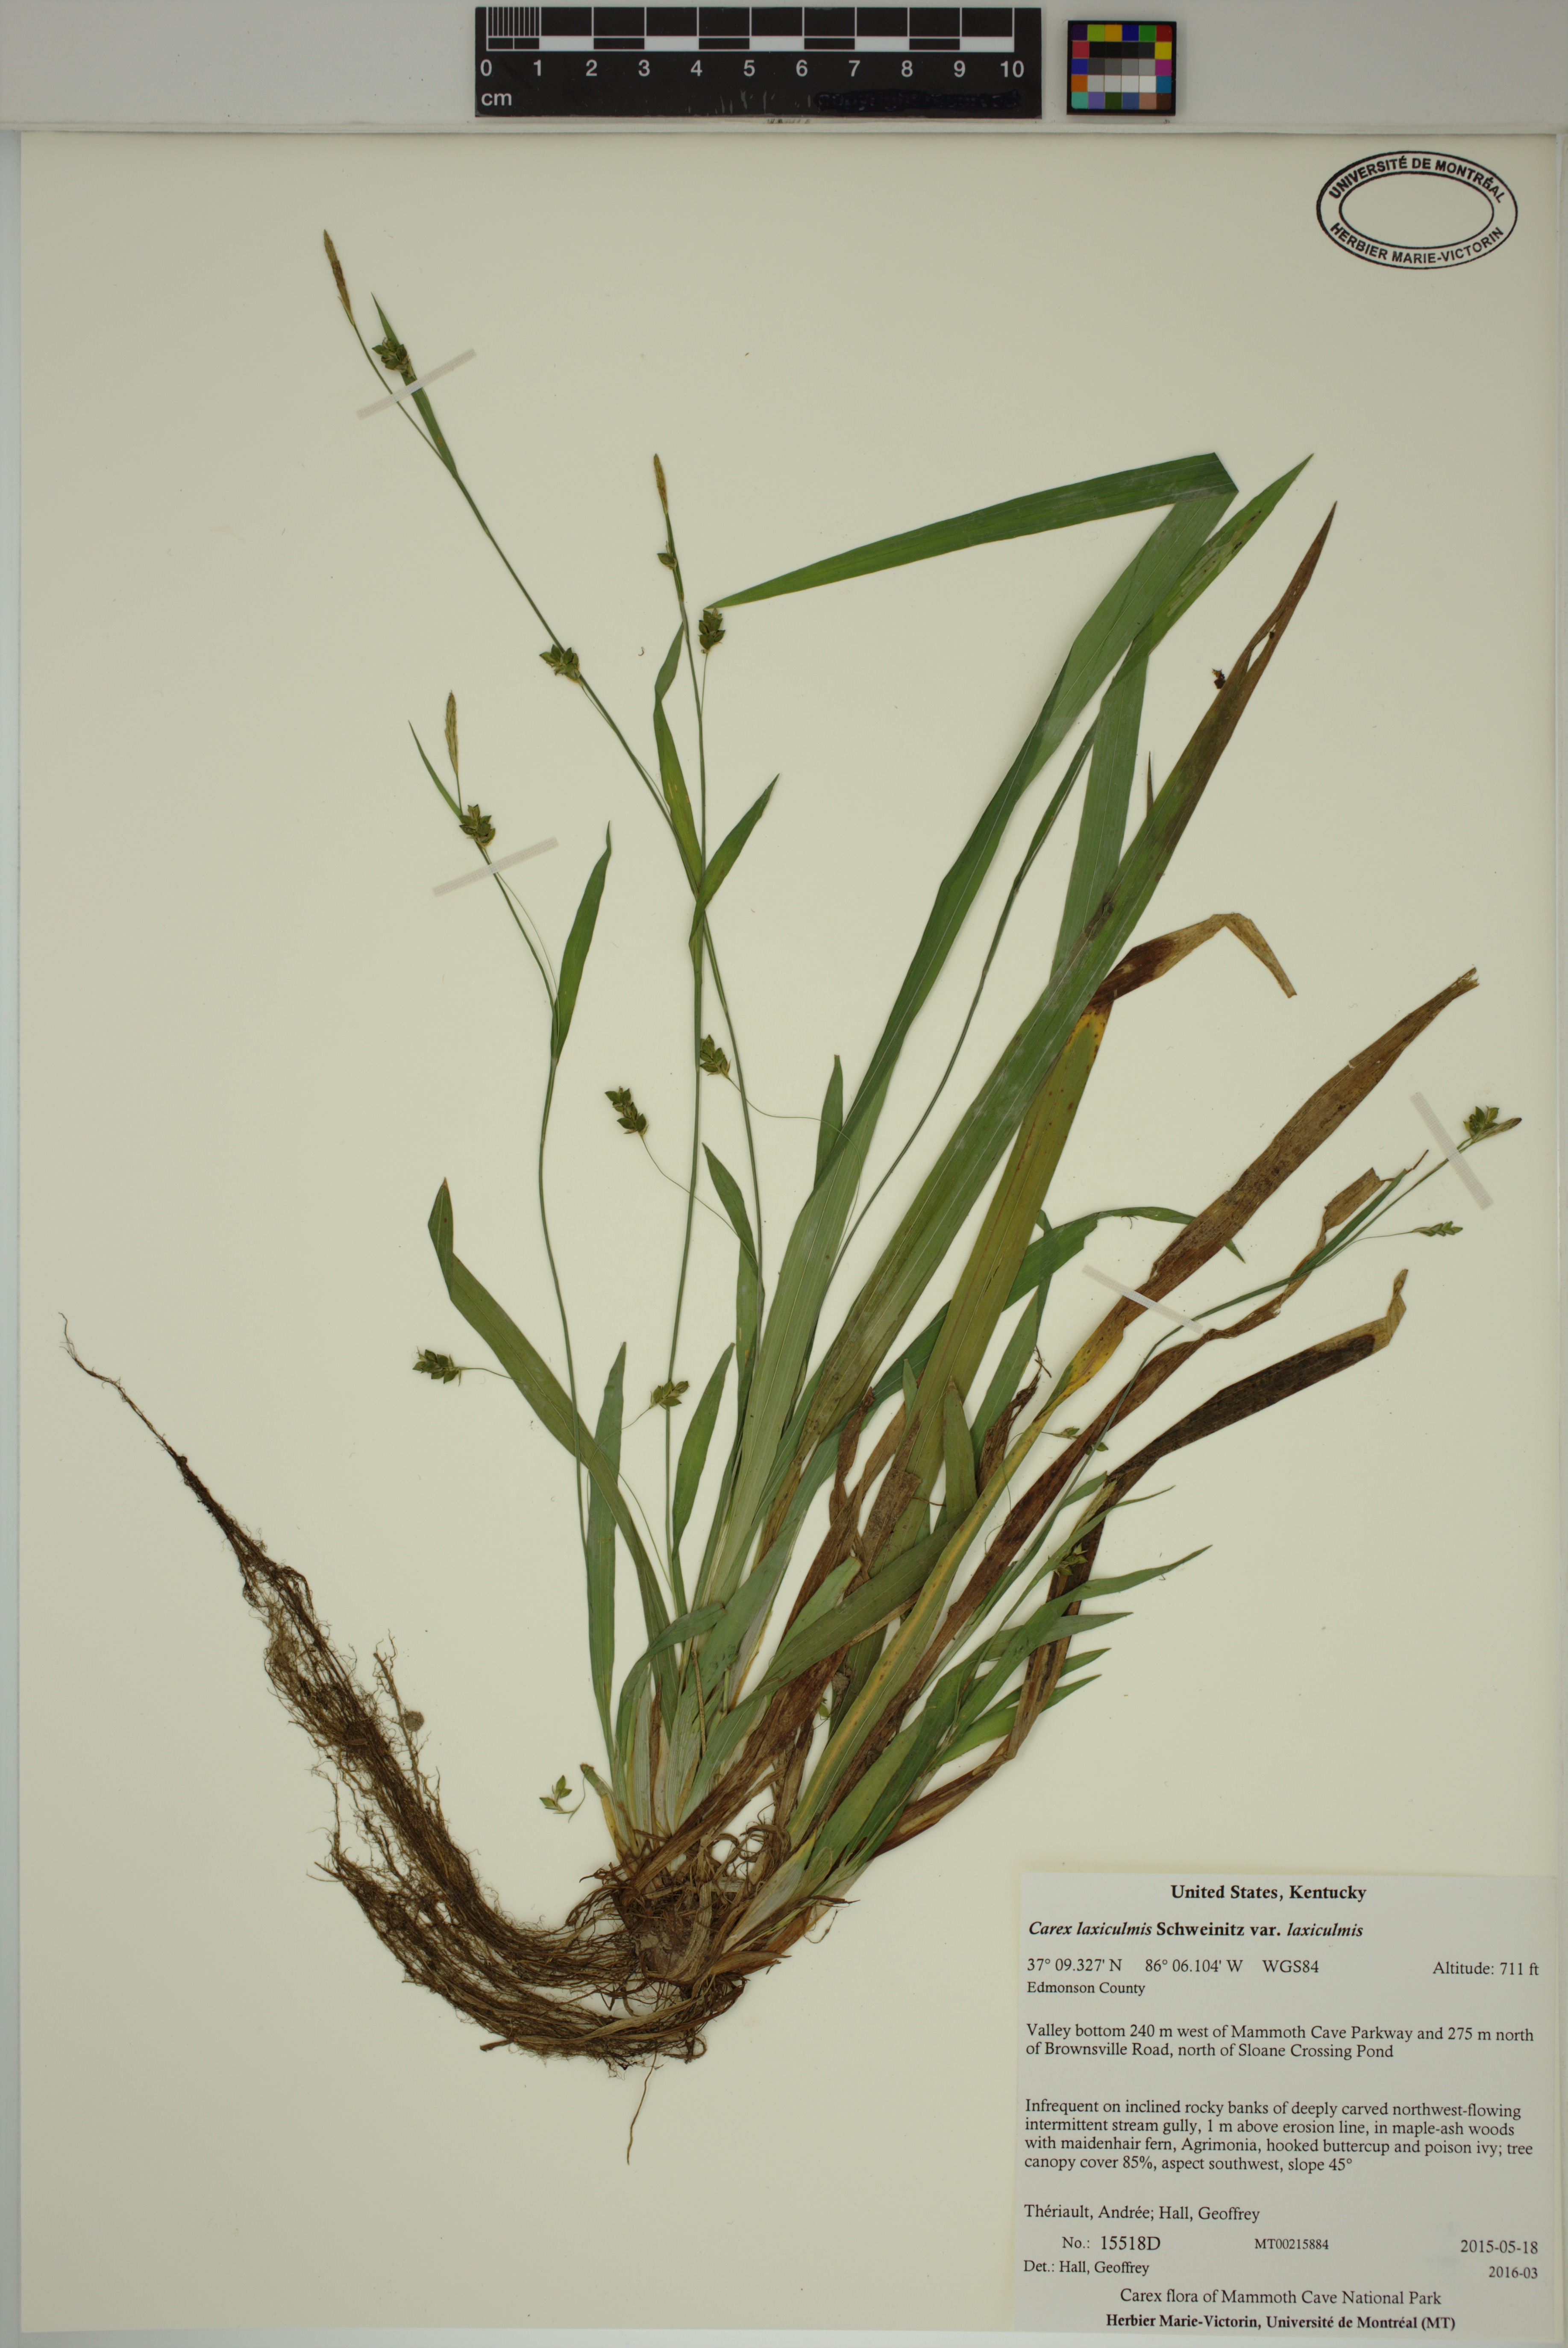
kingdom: Plantae
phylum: Tracheophyta
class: Liliopsida
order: Poales
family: Cyperaceae
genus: Carex
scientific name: Carex laxiculmis
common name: Spreading sedge
